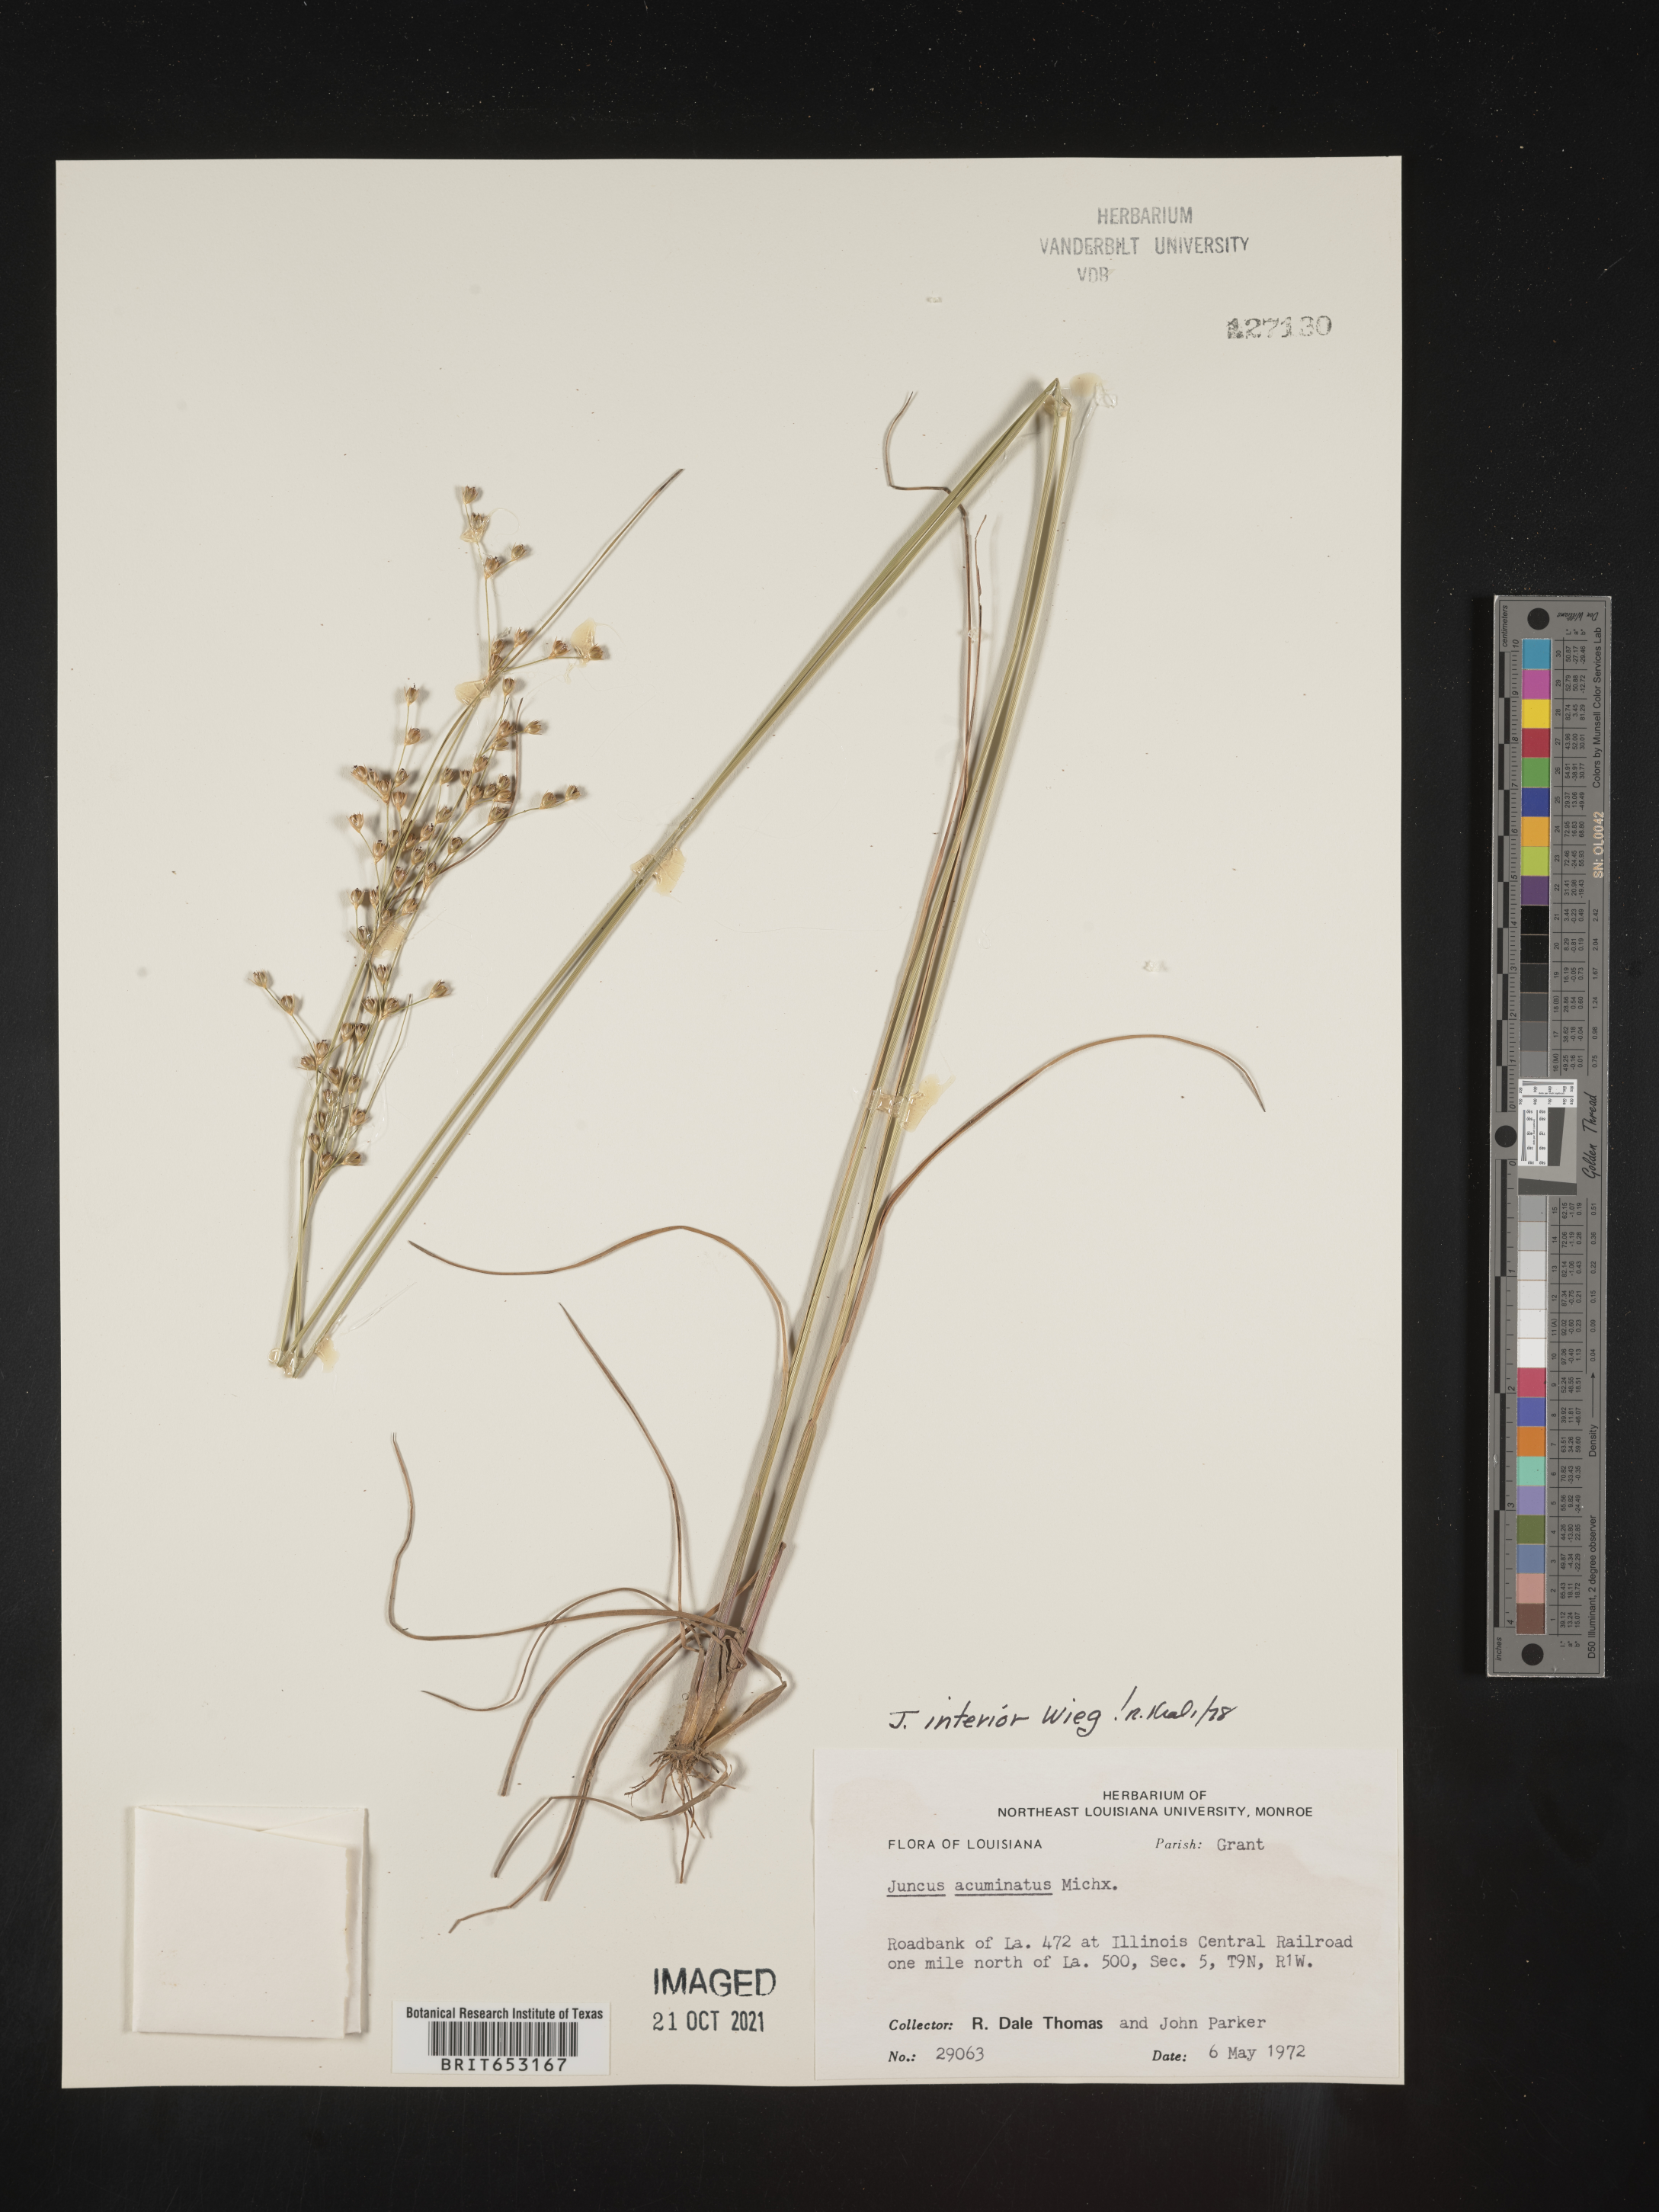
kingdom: Plantae
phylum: Tracheophyta
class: Liliopsida
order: Poales
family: Juncaceae
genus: Juncus
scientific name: Juncus interior
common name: Interior rush
